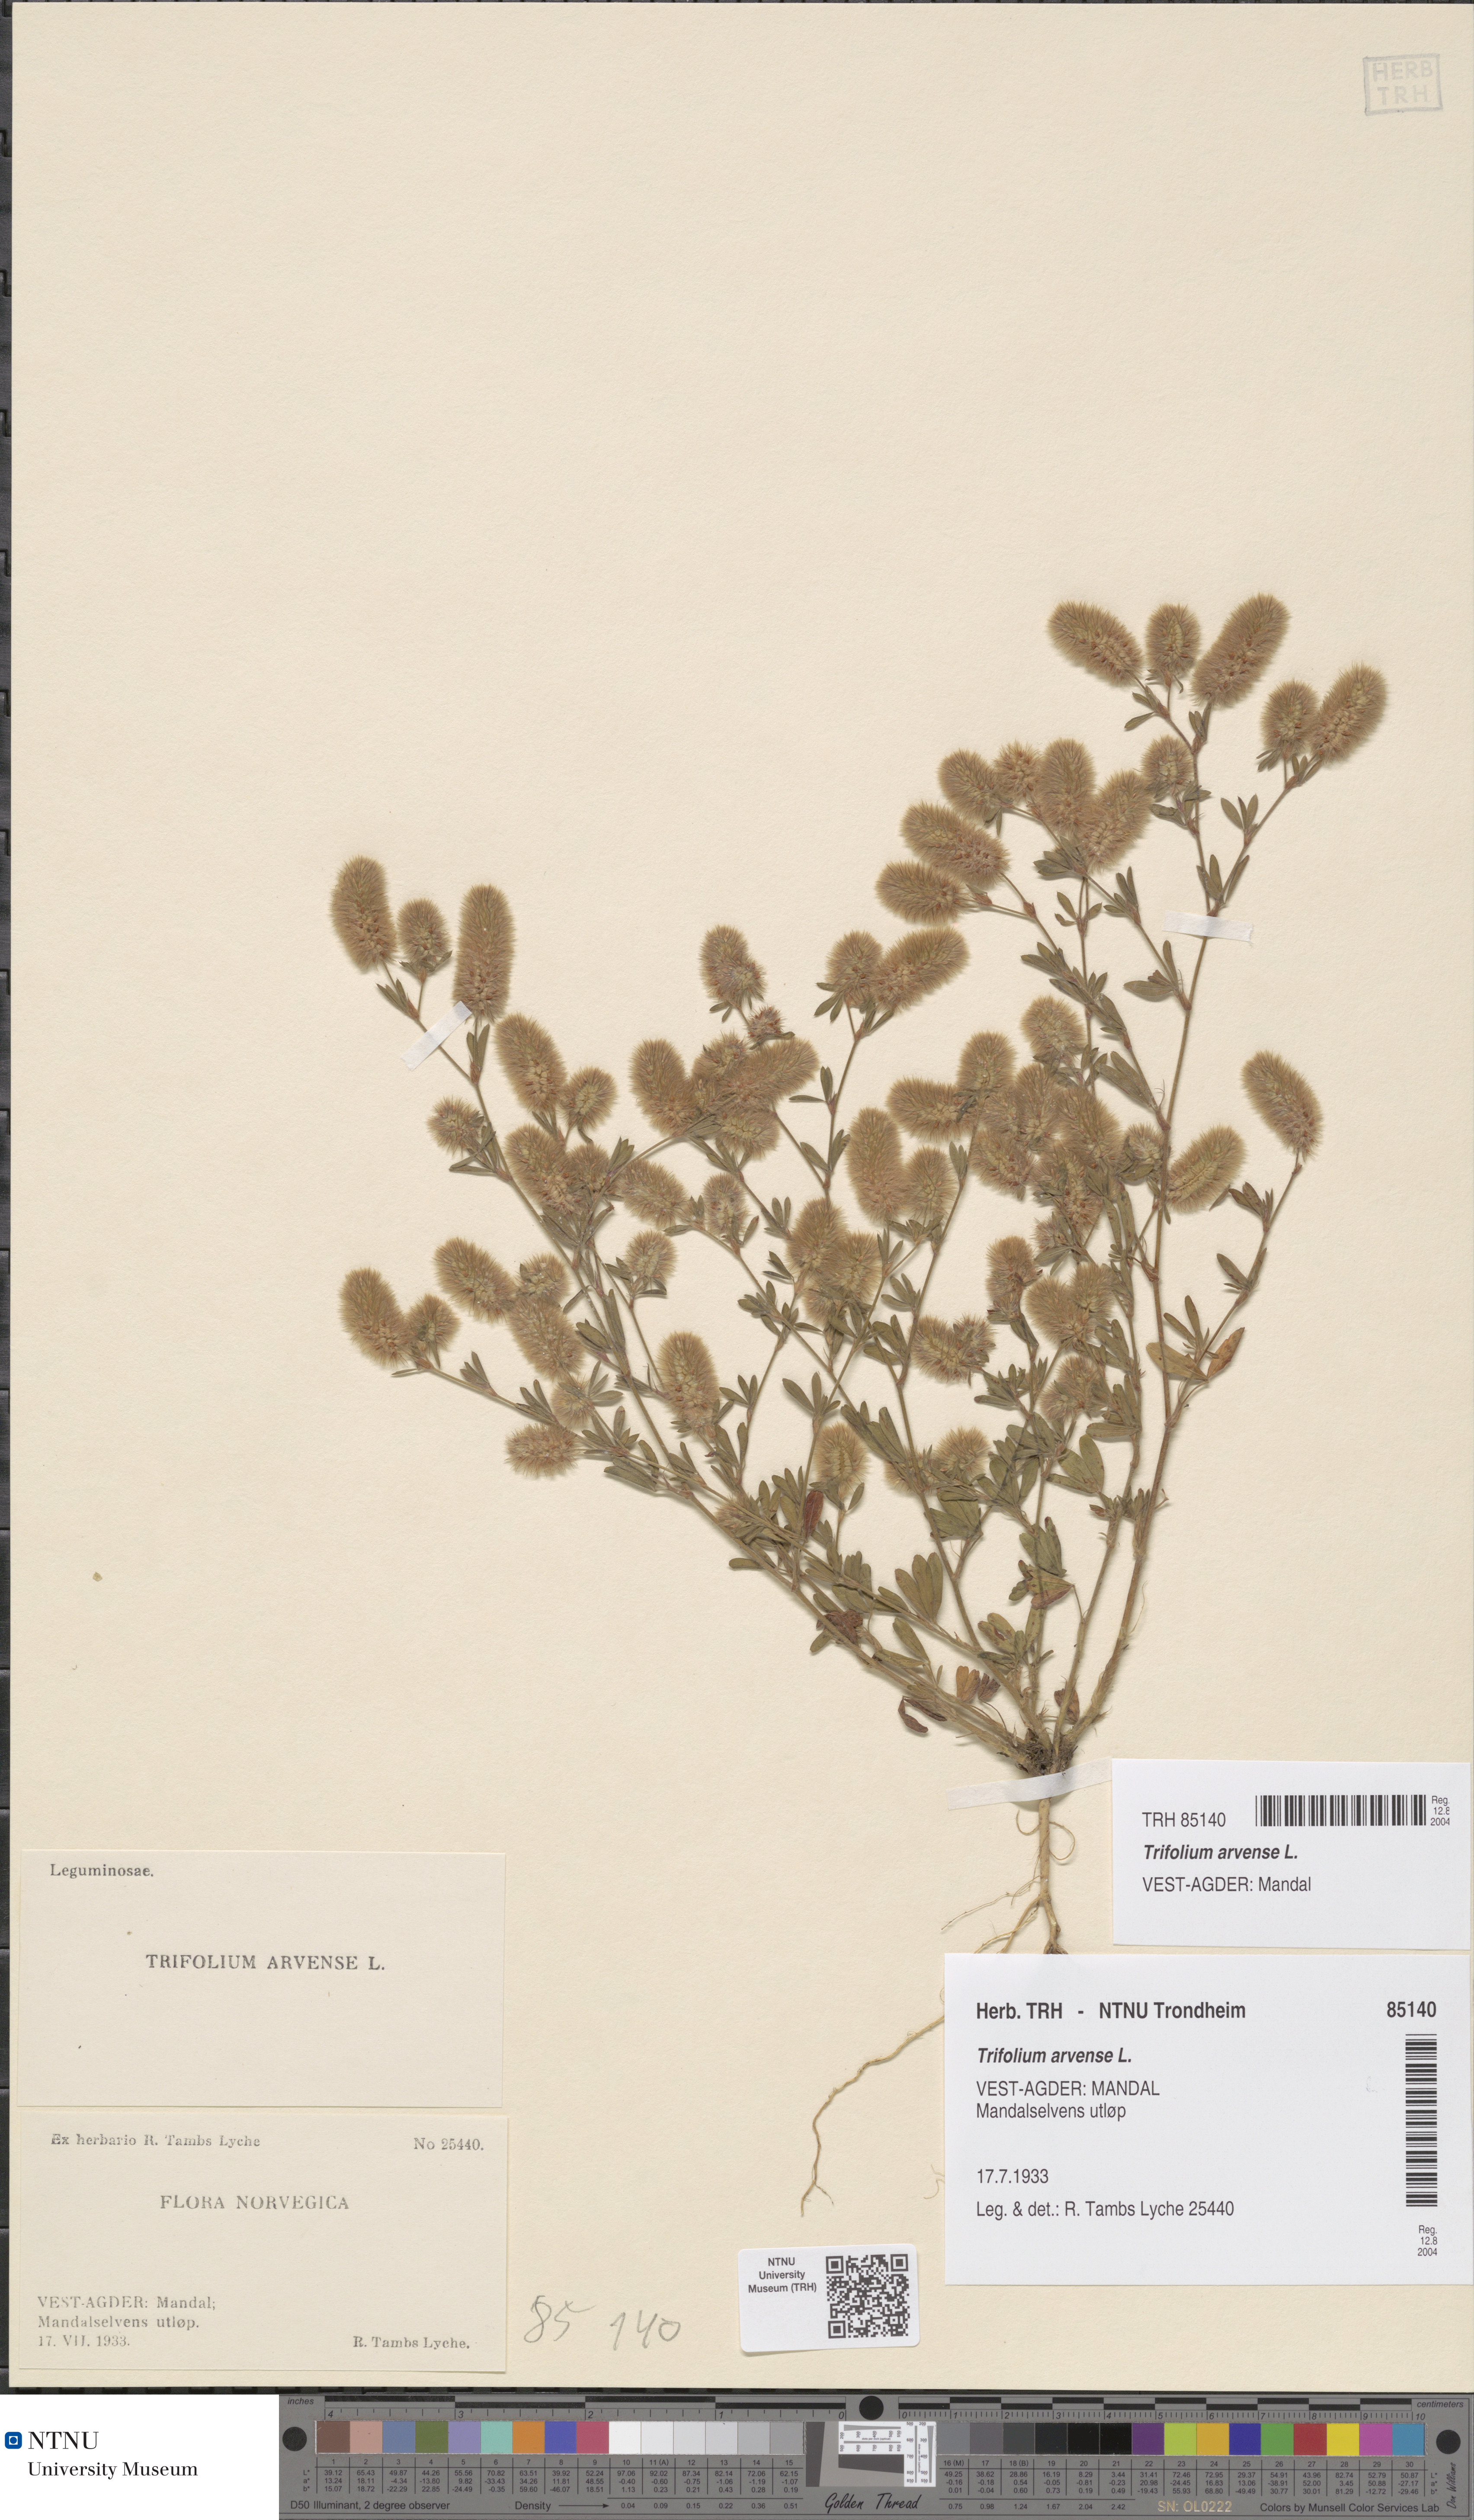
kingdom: Plantae
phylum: Tracheophyta
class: Magnoliopsida
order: Fabales
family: Fabaceae
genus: Trifolium
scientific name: Trifolium arvense
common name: Hare's-foot clover
